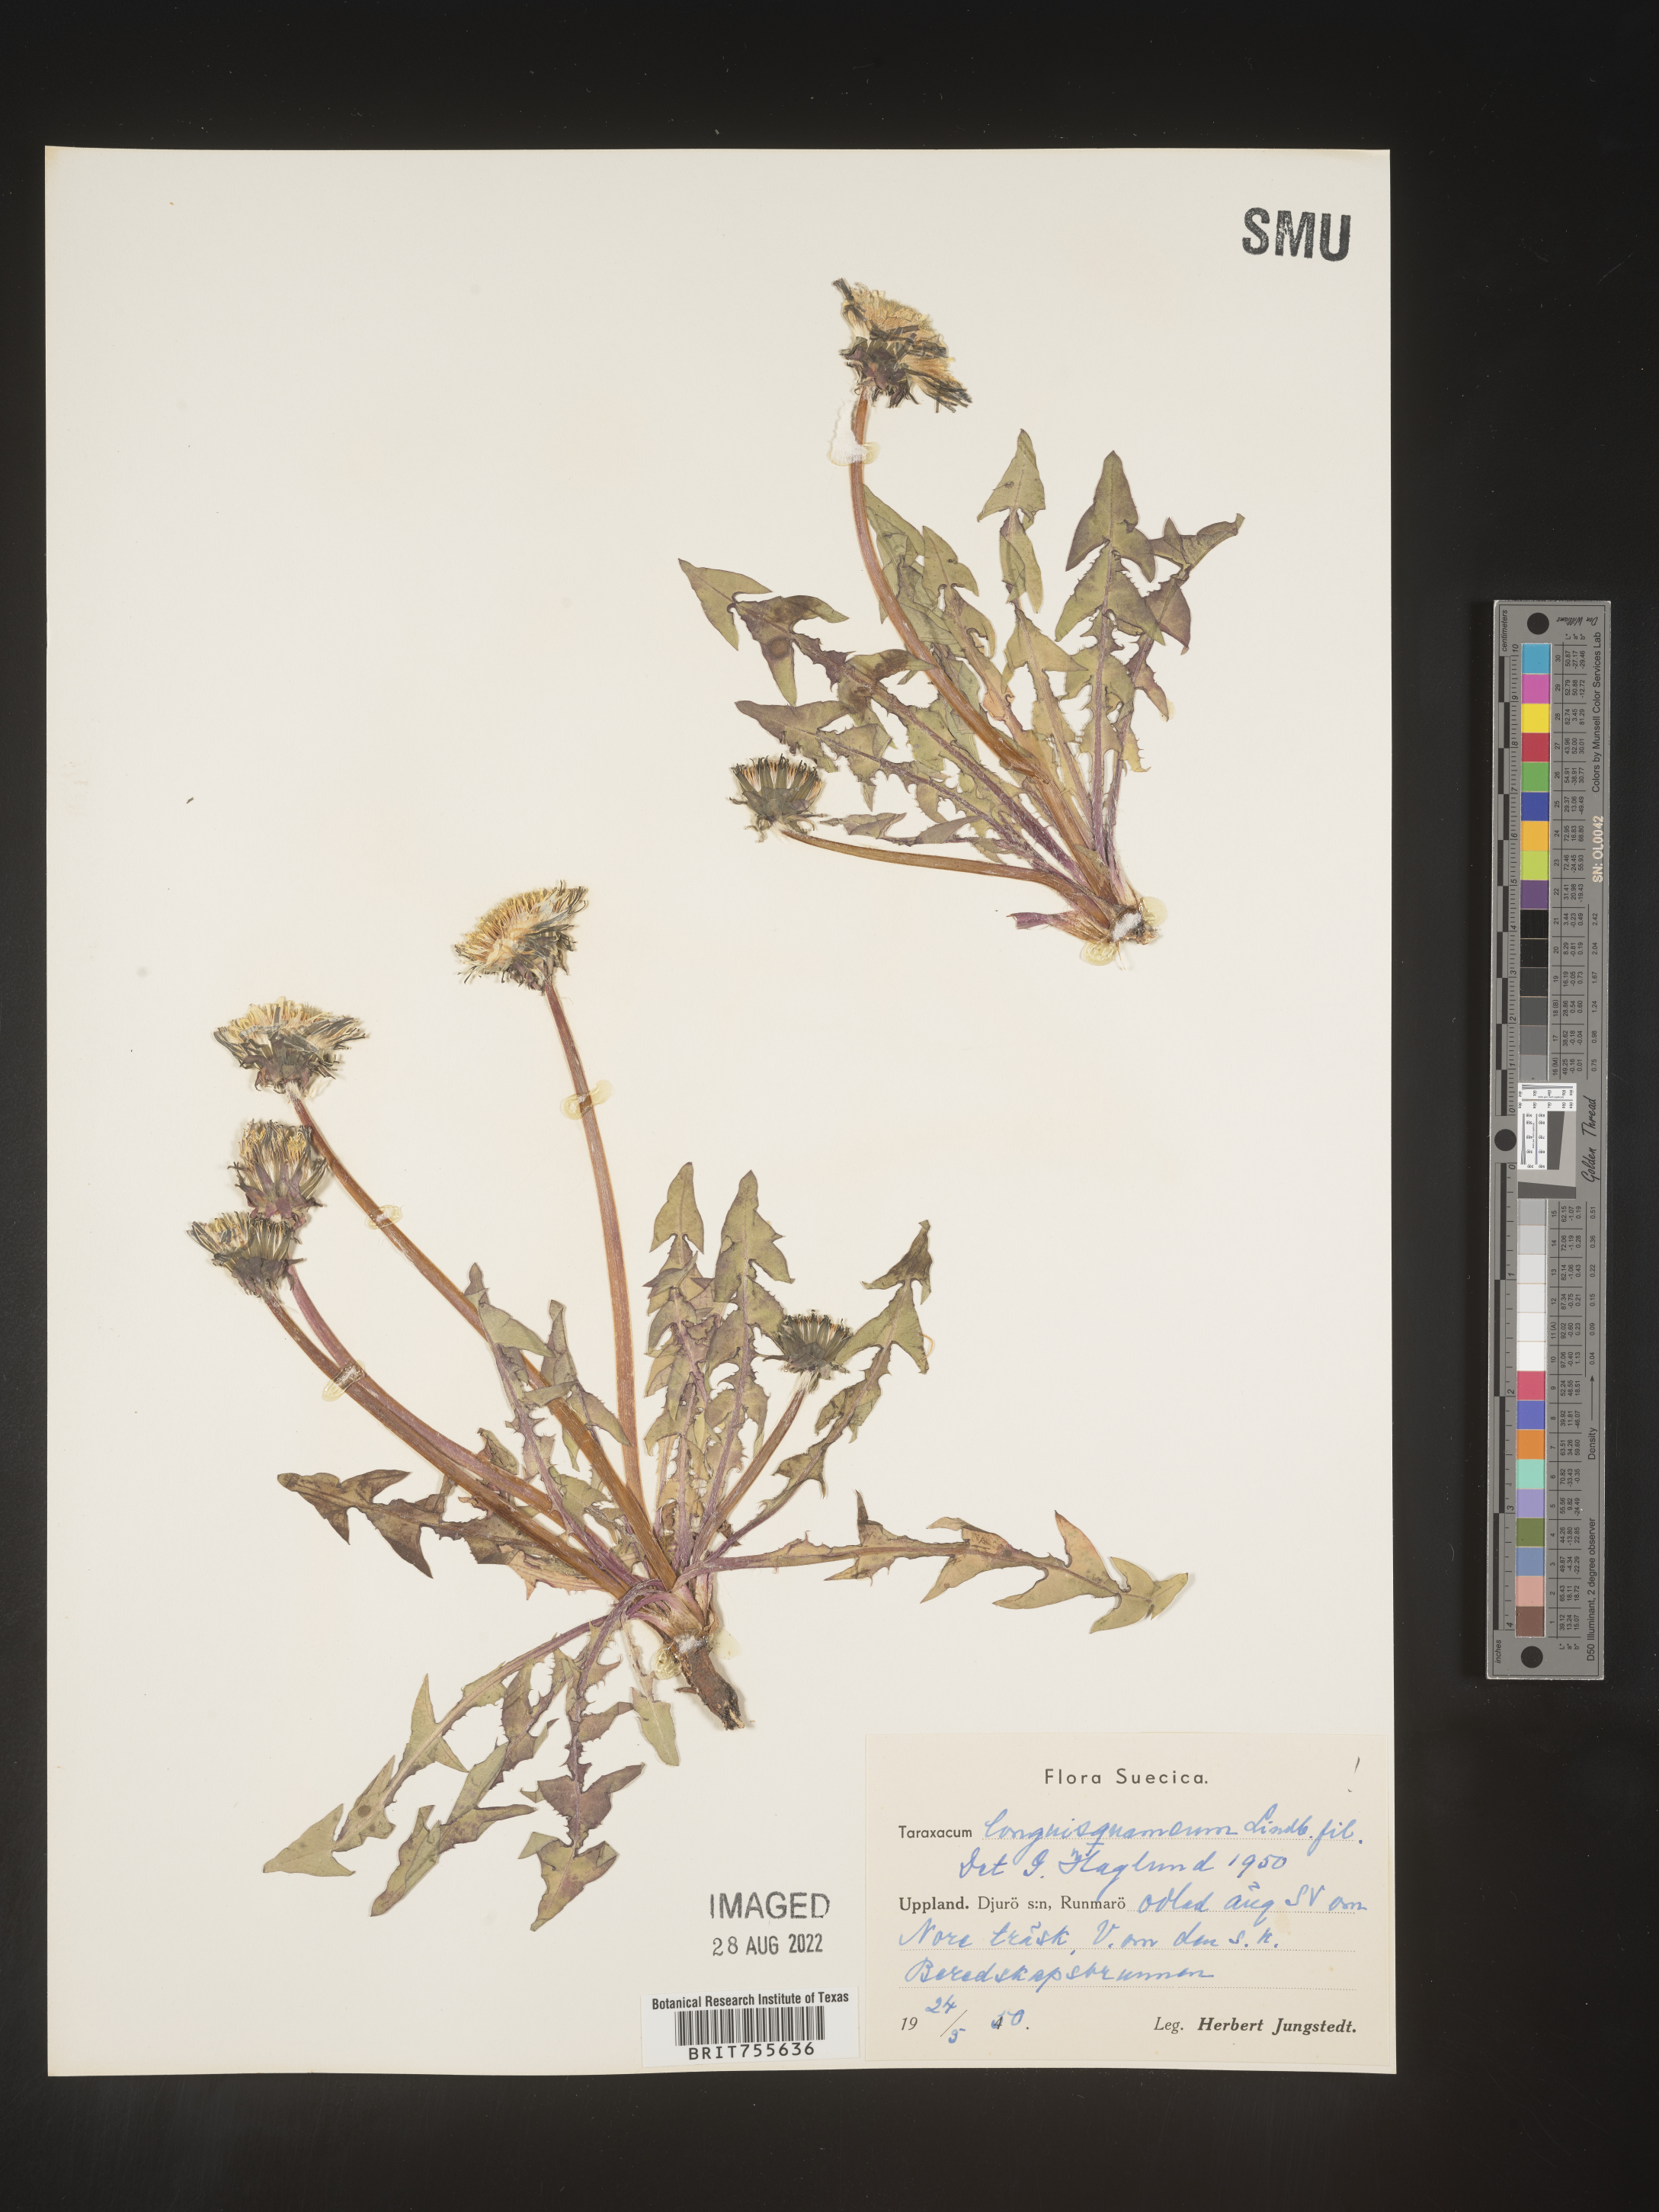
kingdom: Plantae
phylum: Tracheophyta
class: Magnoliopsida
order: Asterales
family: Asteraceae
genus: Taraxacum
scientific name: Taraxacum
